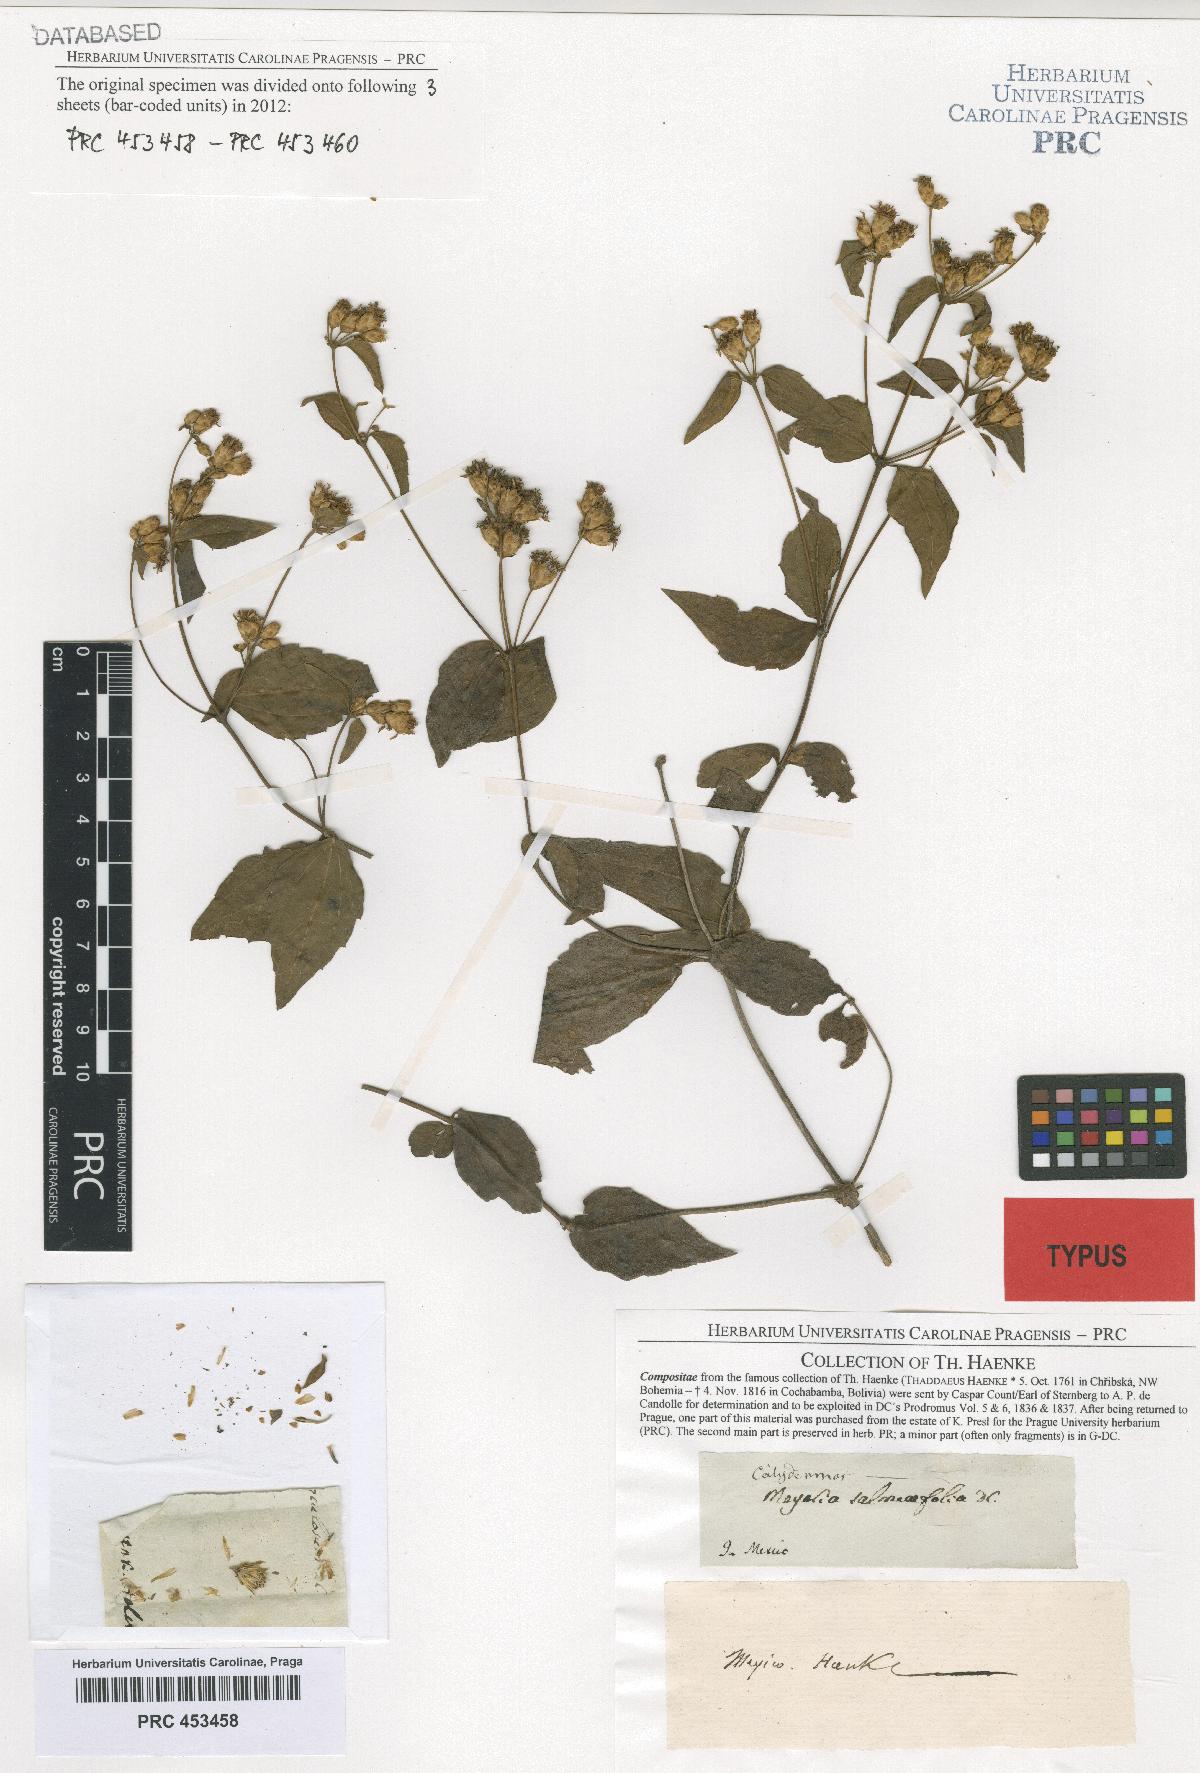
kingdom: Plantae
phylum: Tracheophyta
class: Magnoliopsida
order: Asterales
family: Asteraceae
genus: Calea
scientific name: Calea ternifolia
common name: Mexican calea
